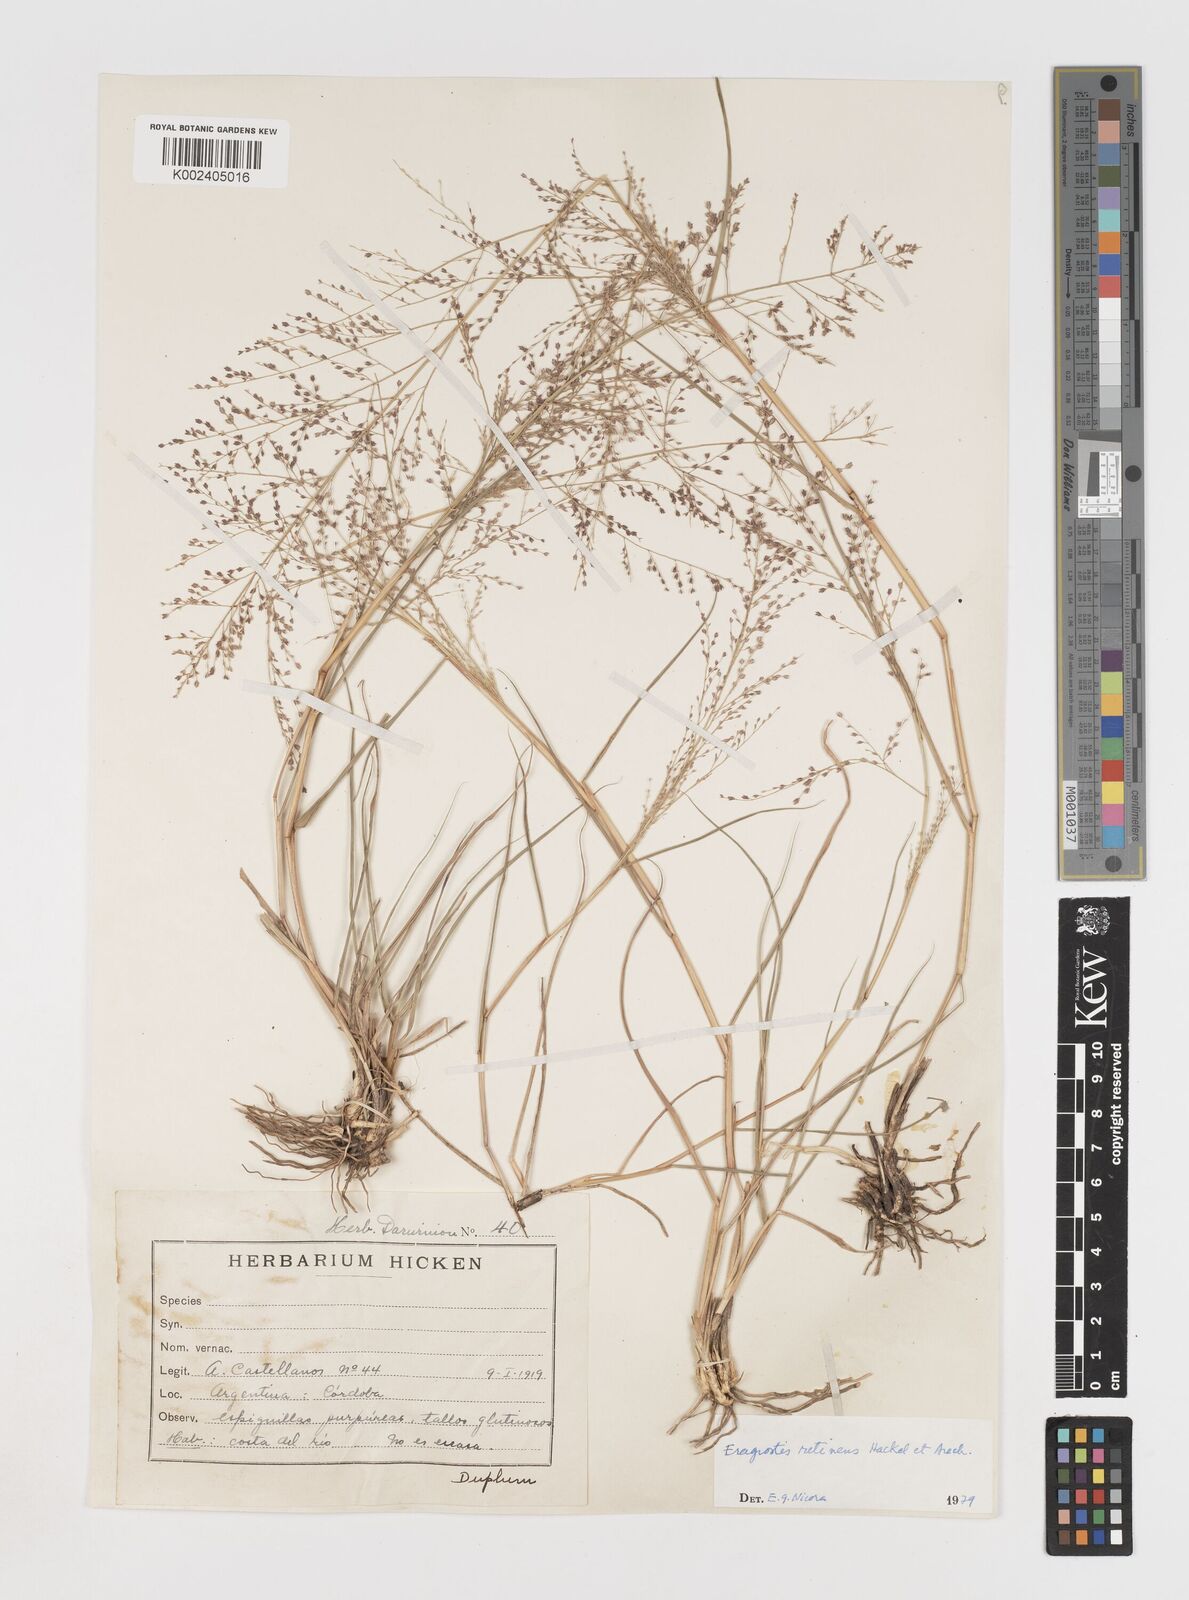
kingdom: Plantae
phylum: Tracheophyta
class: Liliopsida
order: Poales
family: Poaceae
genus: Eragrostis
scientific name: Eragrostis retinens
